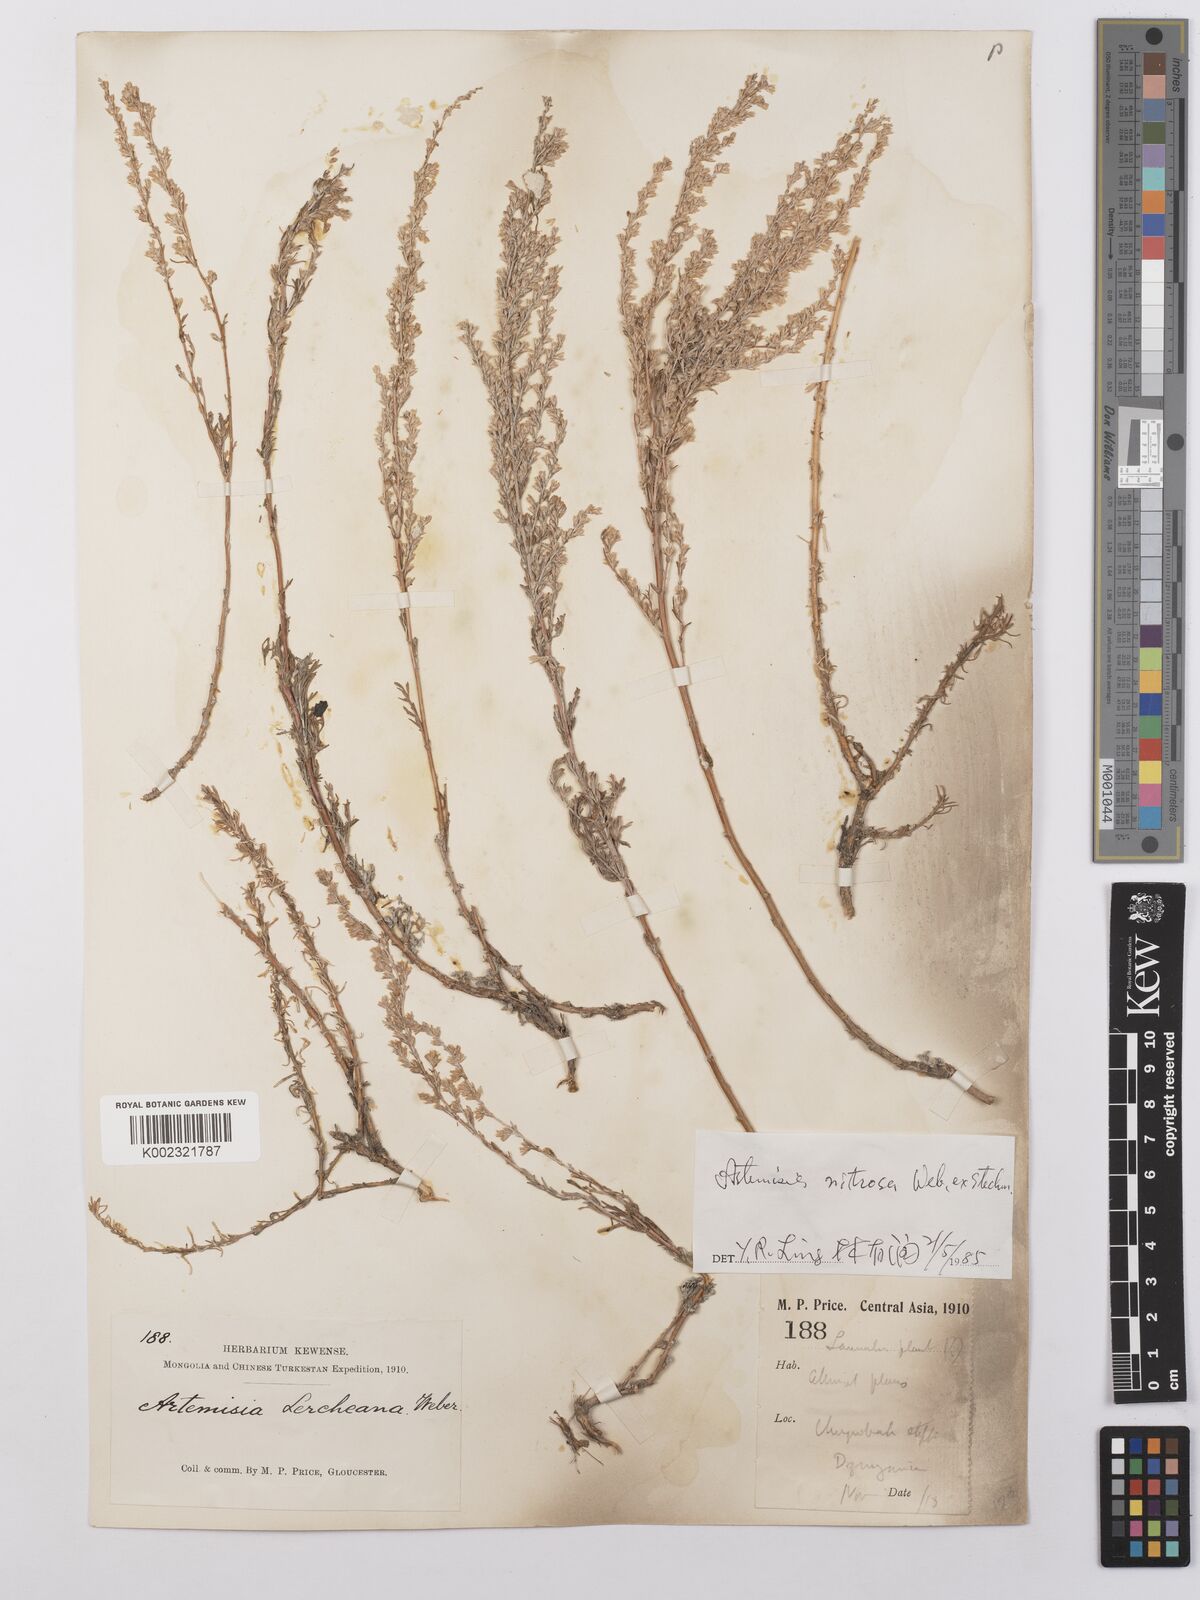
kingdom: Plantae
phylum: Tracheophyta
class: Magnoliopsida
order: Asterales
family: Asteraceae
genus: Artemisia
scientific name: Artemisia nitrosa
